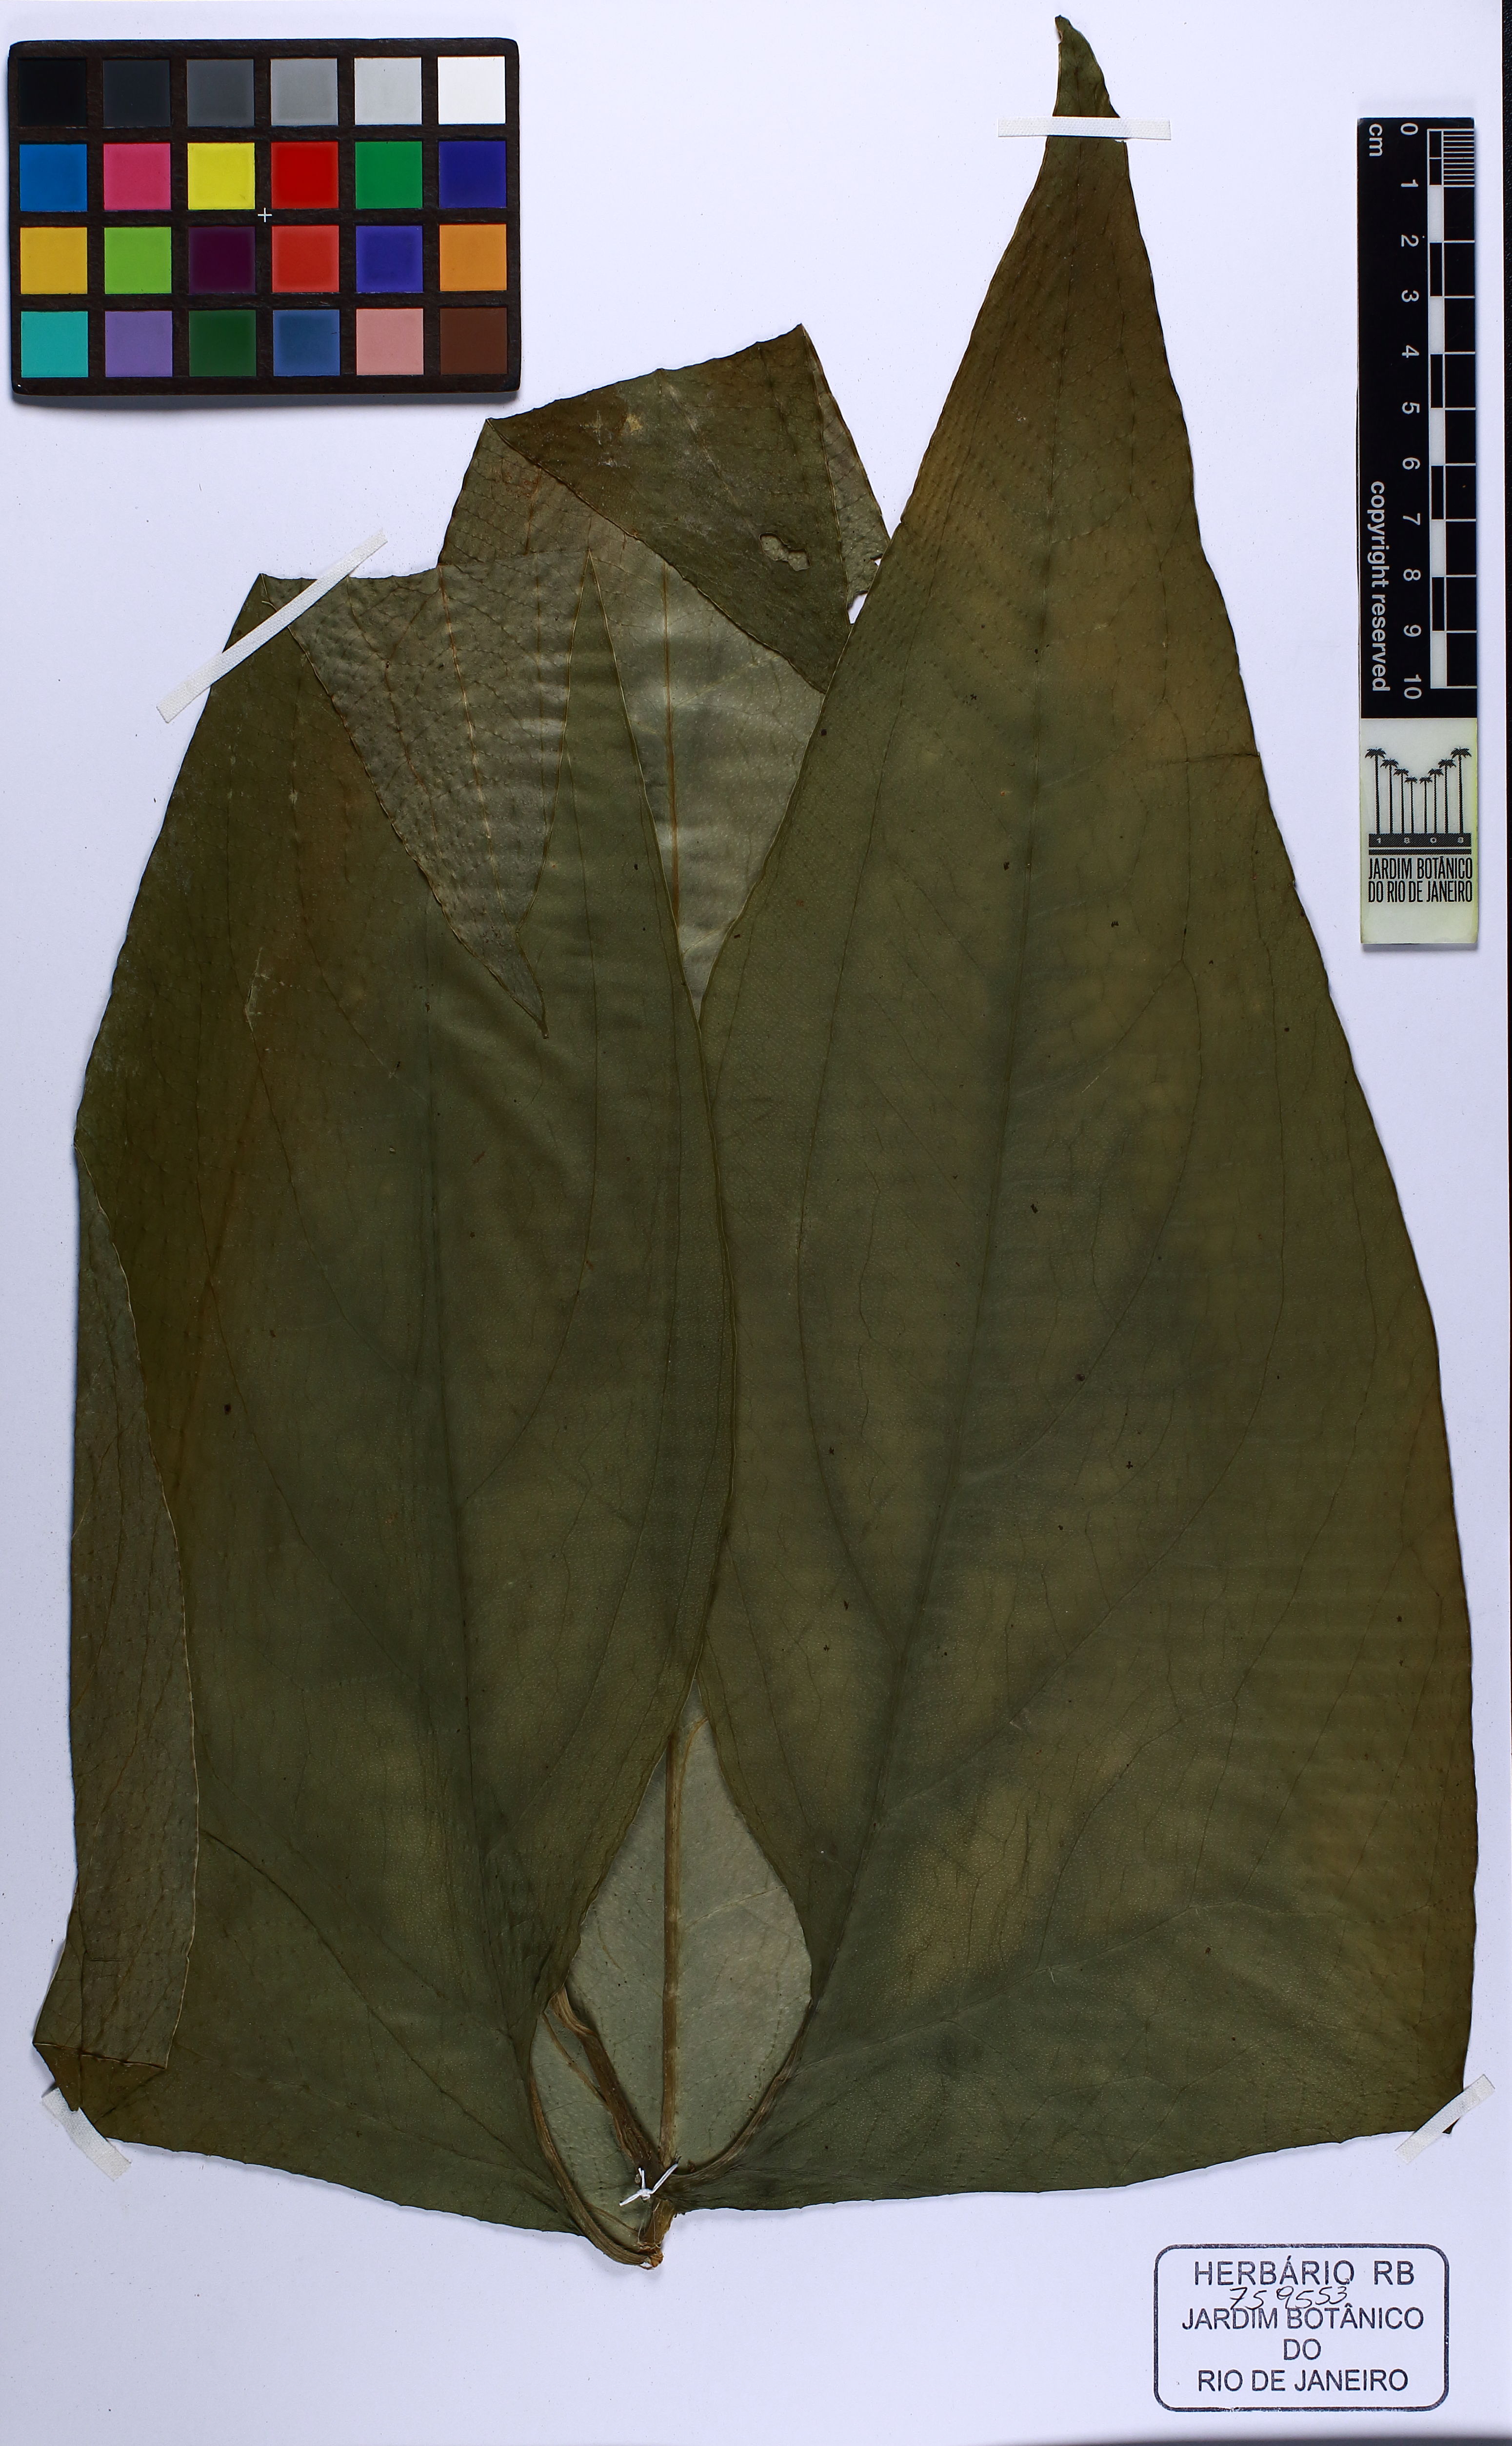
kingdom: Plantae
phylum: Tracheophyta
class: Liliopsida
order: Alismatales
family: Araceae
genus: Urospatha
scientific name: Urospatha sagittifolia
